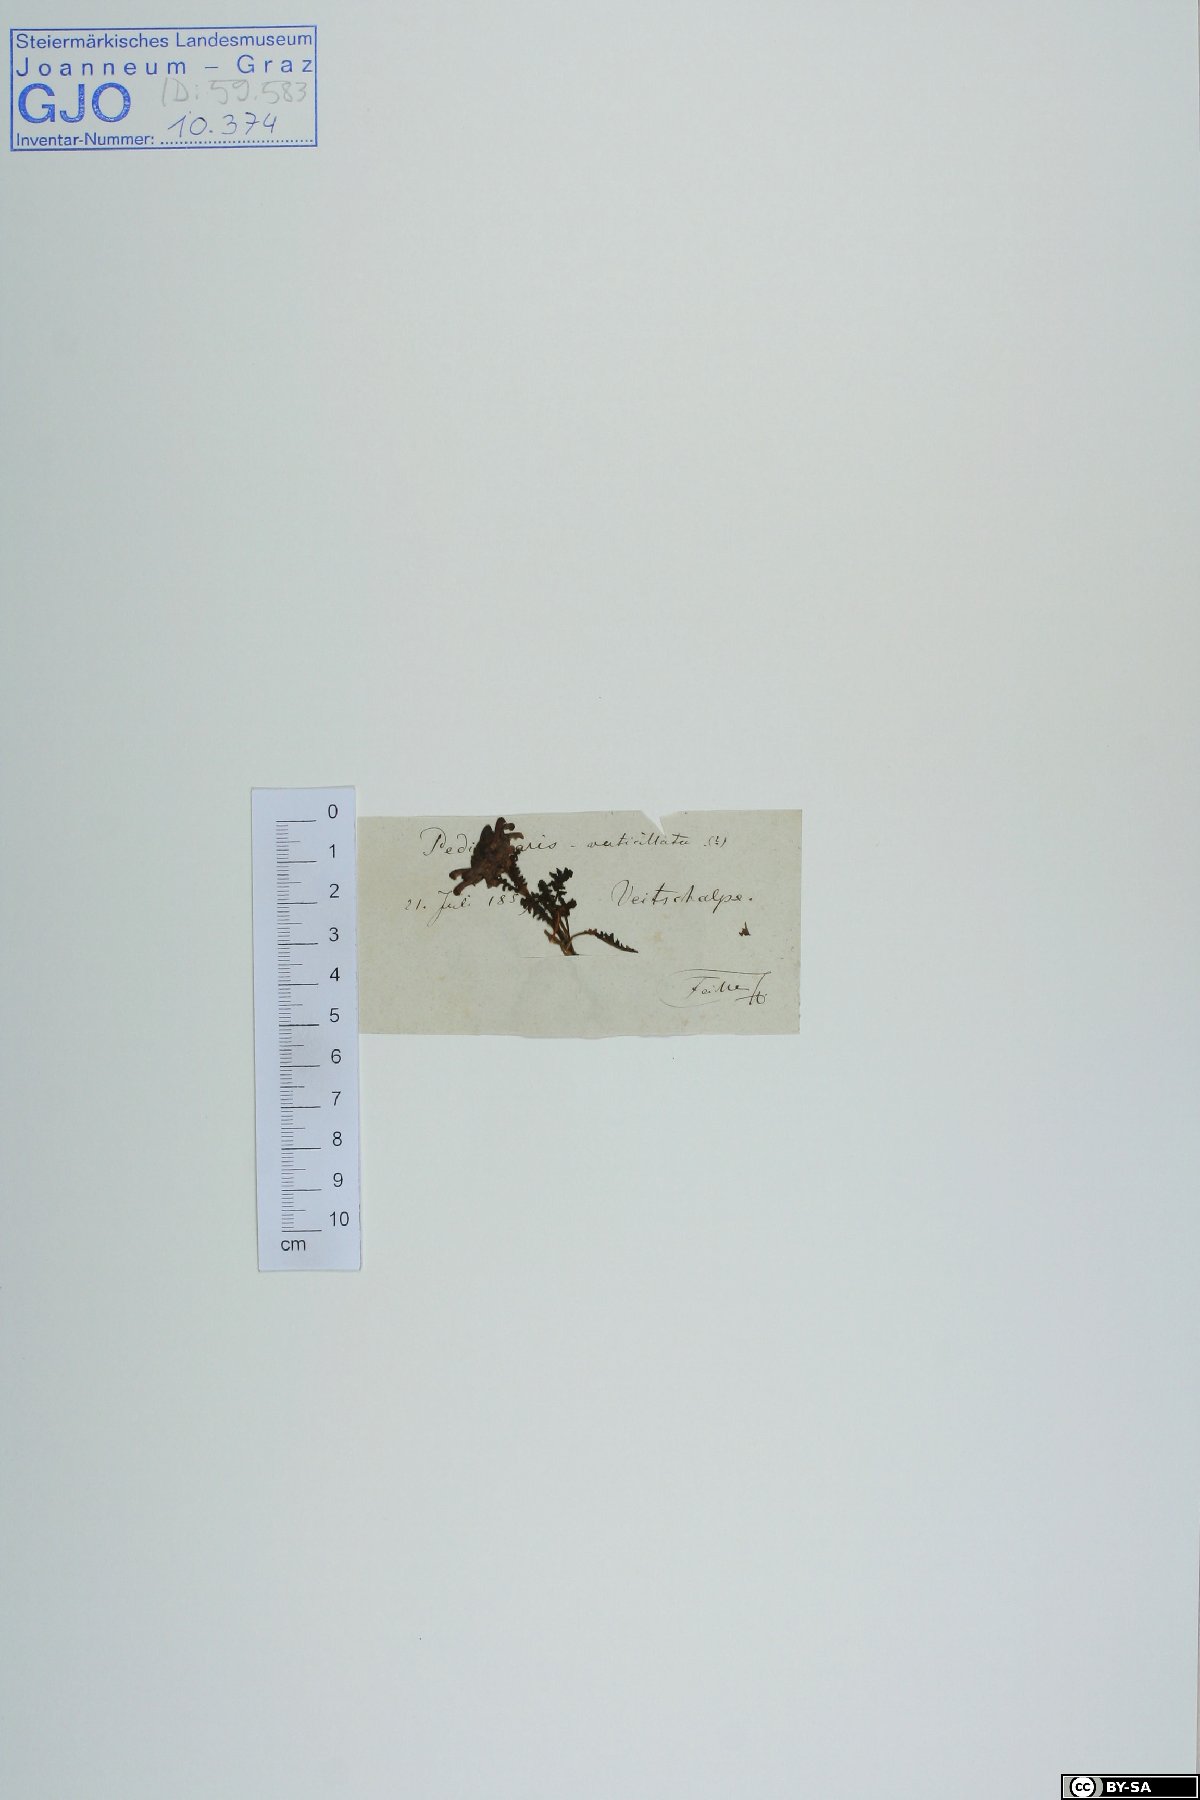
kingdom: Plantae
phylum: Tracheophyta
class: Magnoliopsida
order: Lamiales
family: Orobanchaceae
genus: Pedicularis
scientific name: Pedicularis verticillata
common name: Whorled lousewort
